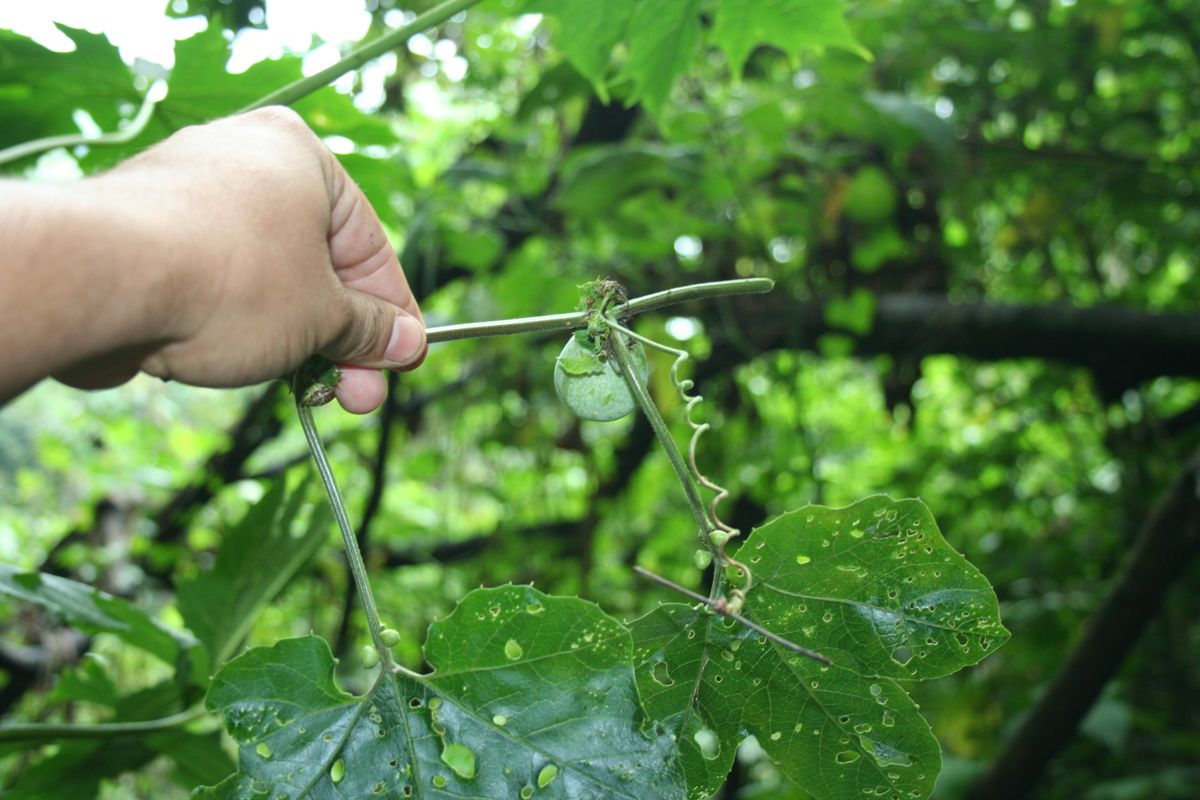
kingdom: Plantae
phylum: Tracheophyta
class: Magnoliopsida
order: Malpighiales
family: Passifloraceae
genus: Passiflora
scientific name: Passiflora adenopoda
